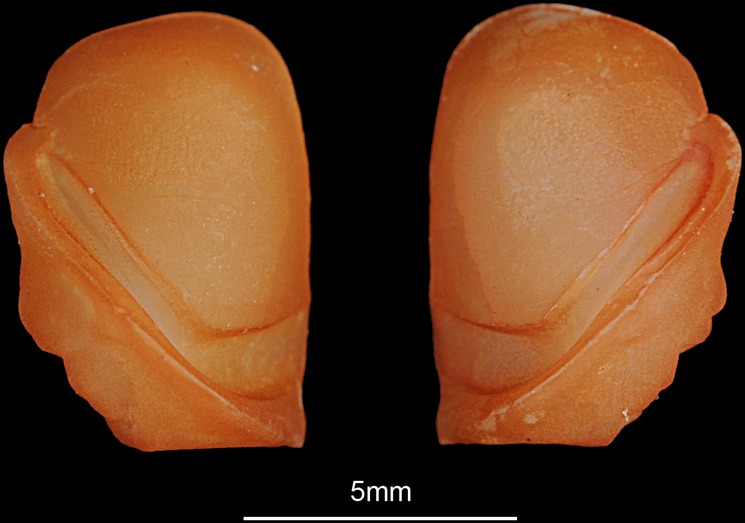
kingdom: Animalia
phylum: Chordata
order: Perciformes
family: Sciaenidae
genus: Pseudotolithus
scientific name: Pseudotolithus elongatus
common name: Bobo croaker
